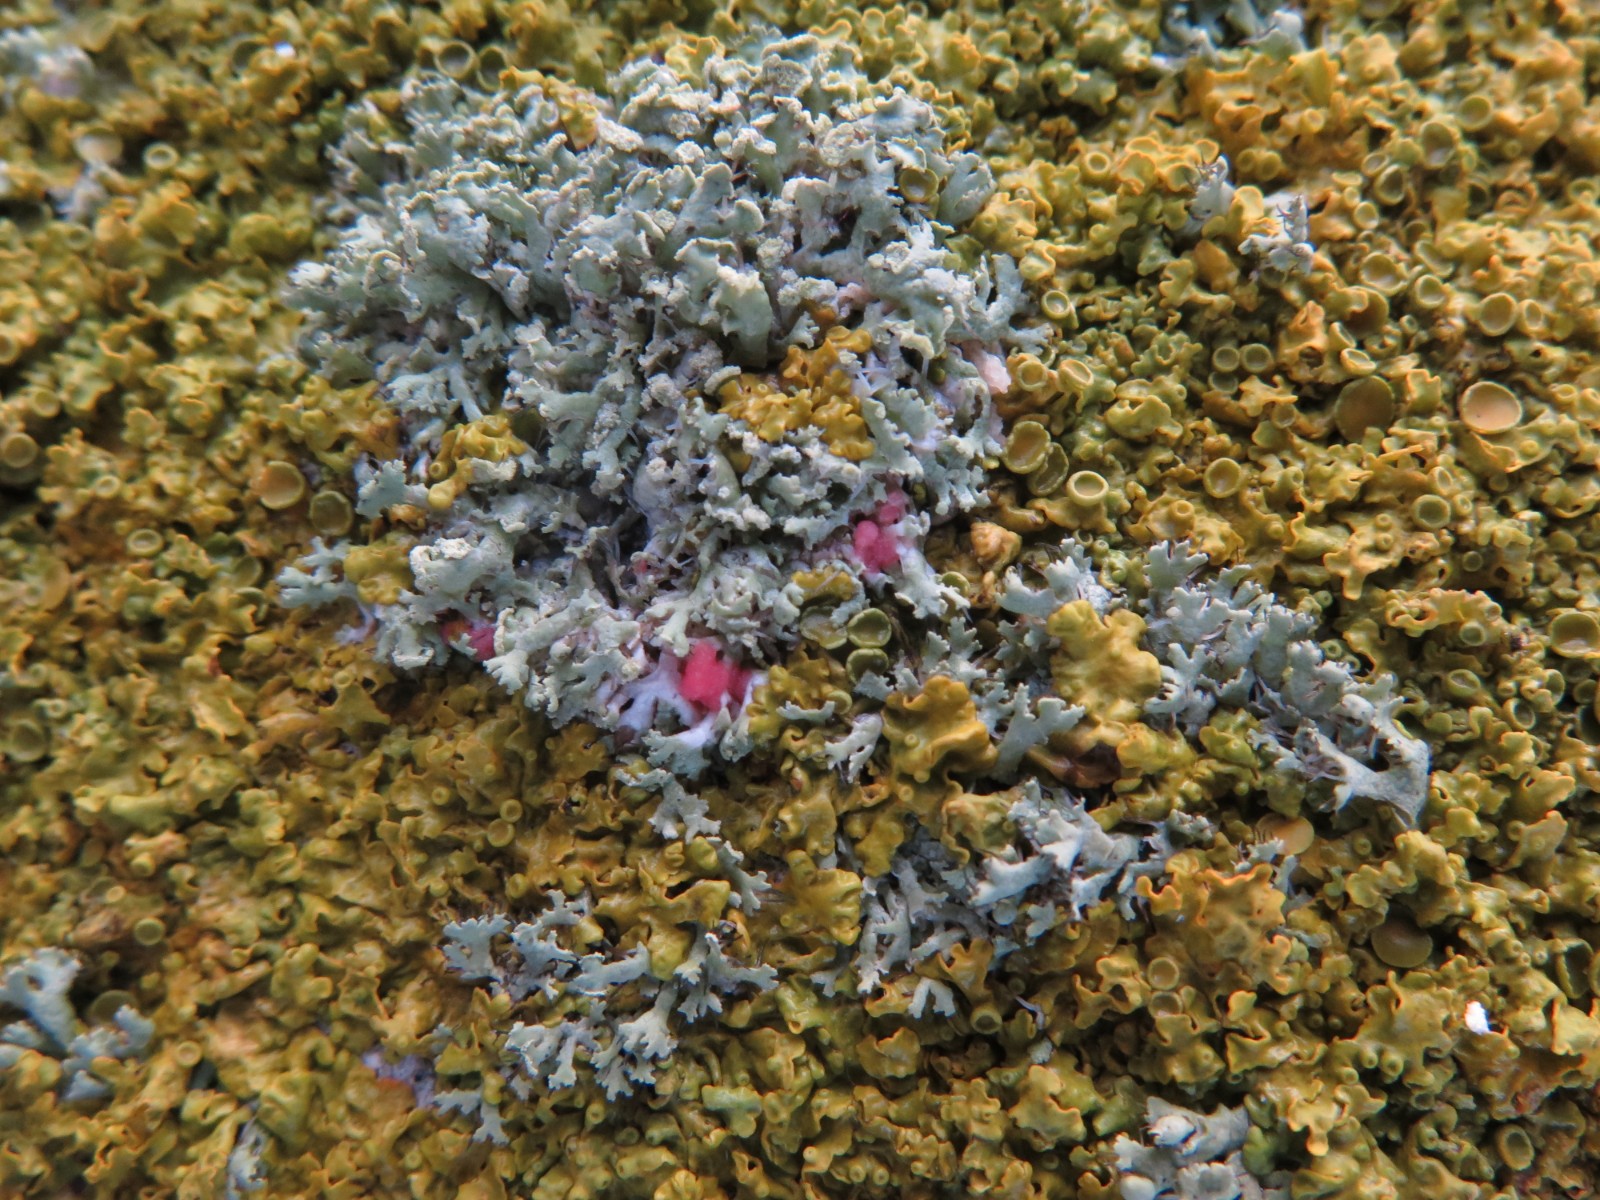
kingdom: Fungi
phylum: Ascomycota
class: Sordariomycetes
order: Hypocreales
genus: Illosporiopsis
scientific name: Illosporiopsis christiansenii
